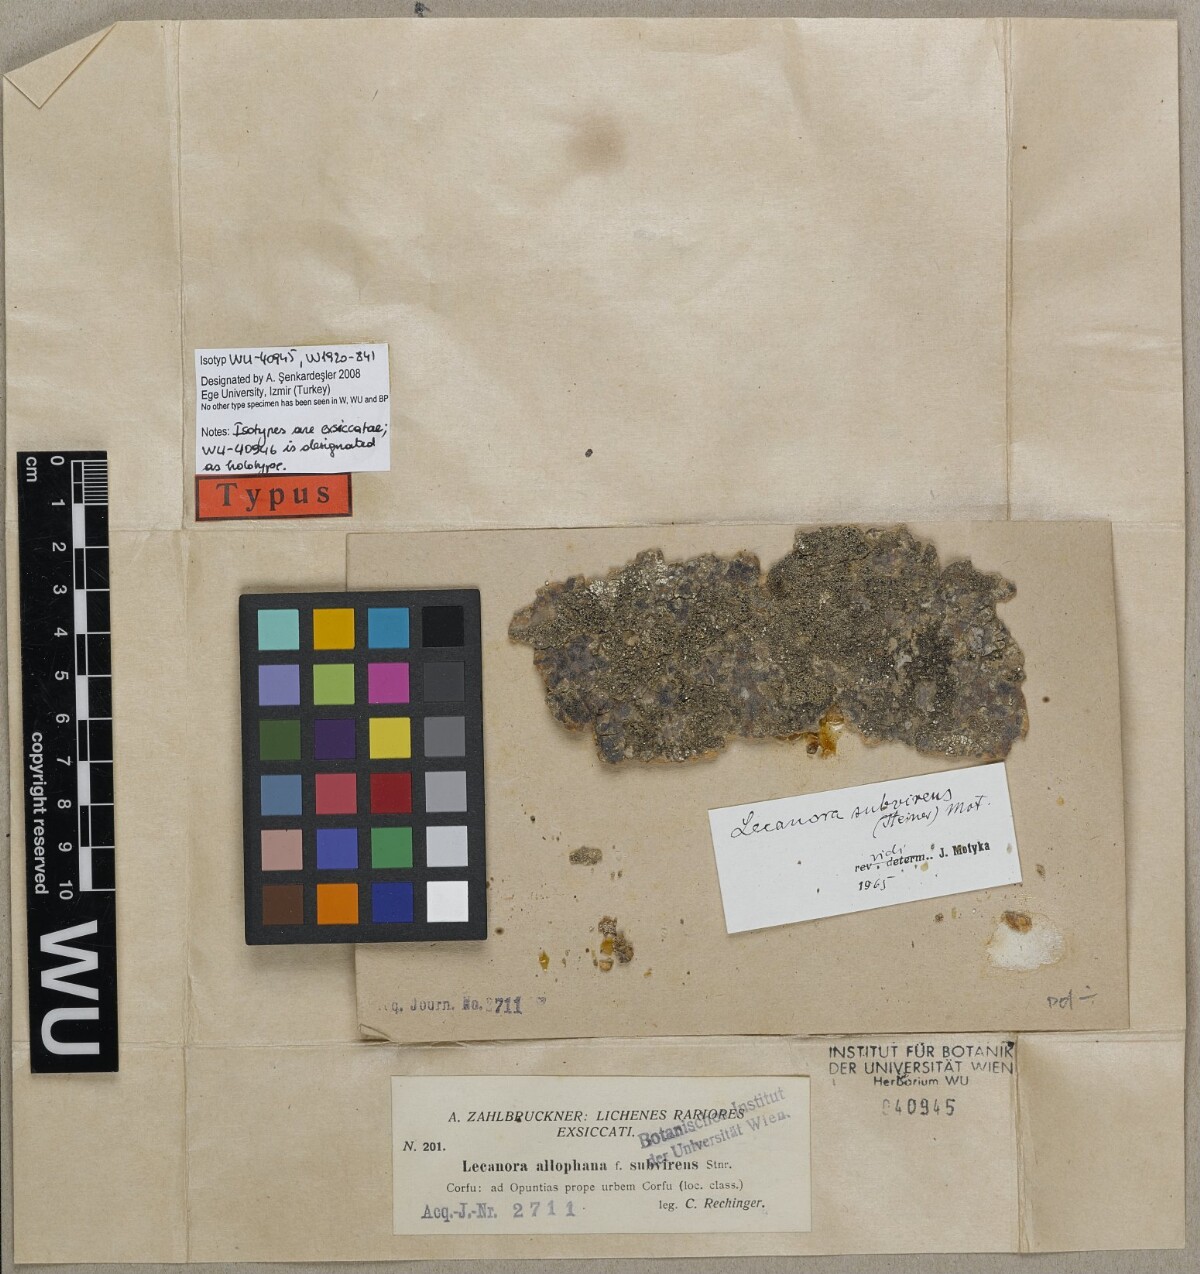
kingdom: Fungi
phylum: Ascomycota
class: Lecanoromycetes
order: Lecanorales
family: Lecanoraceae
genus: Lecanora
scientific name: Lecanora albella
